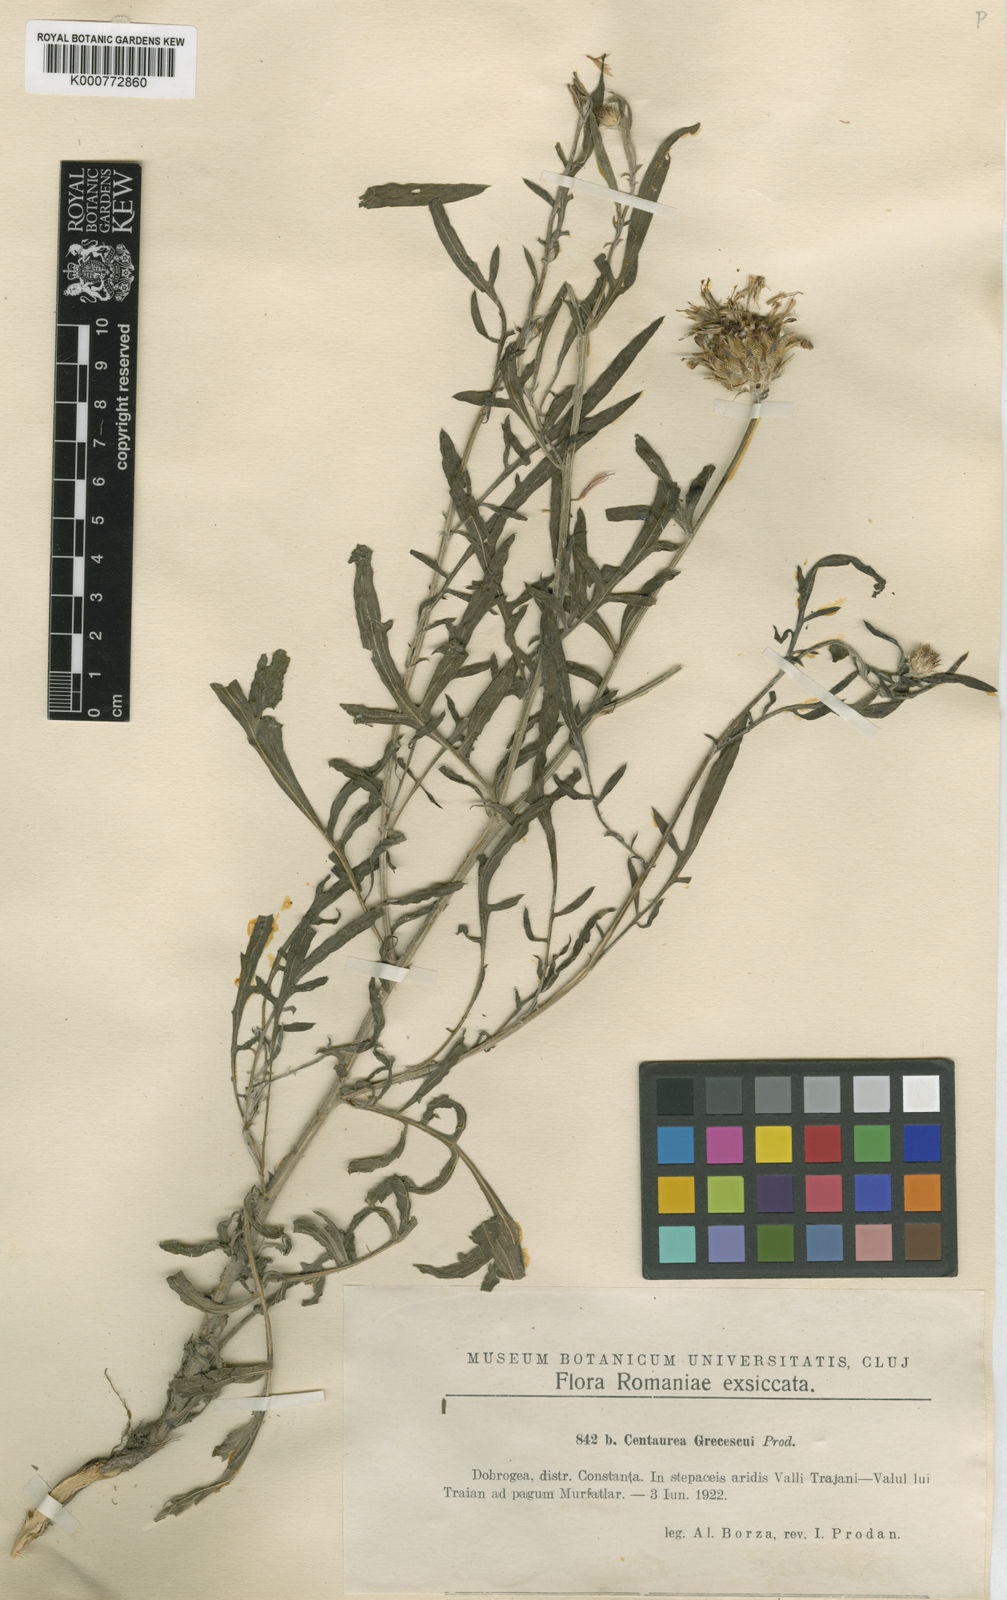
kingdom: Plantae
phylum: Tracheophyta
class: Magnoliopsida
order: Asterales
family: Asteraceae
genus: Centaurea
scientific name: Centaurea grecescui
